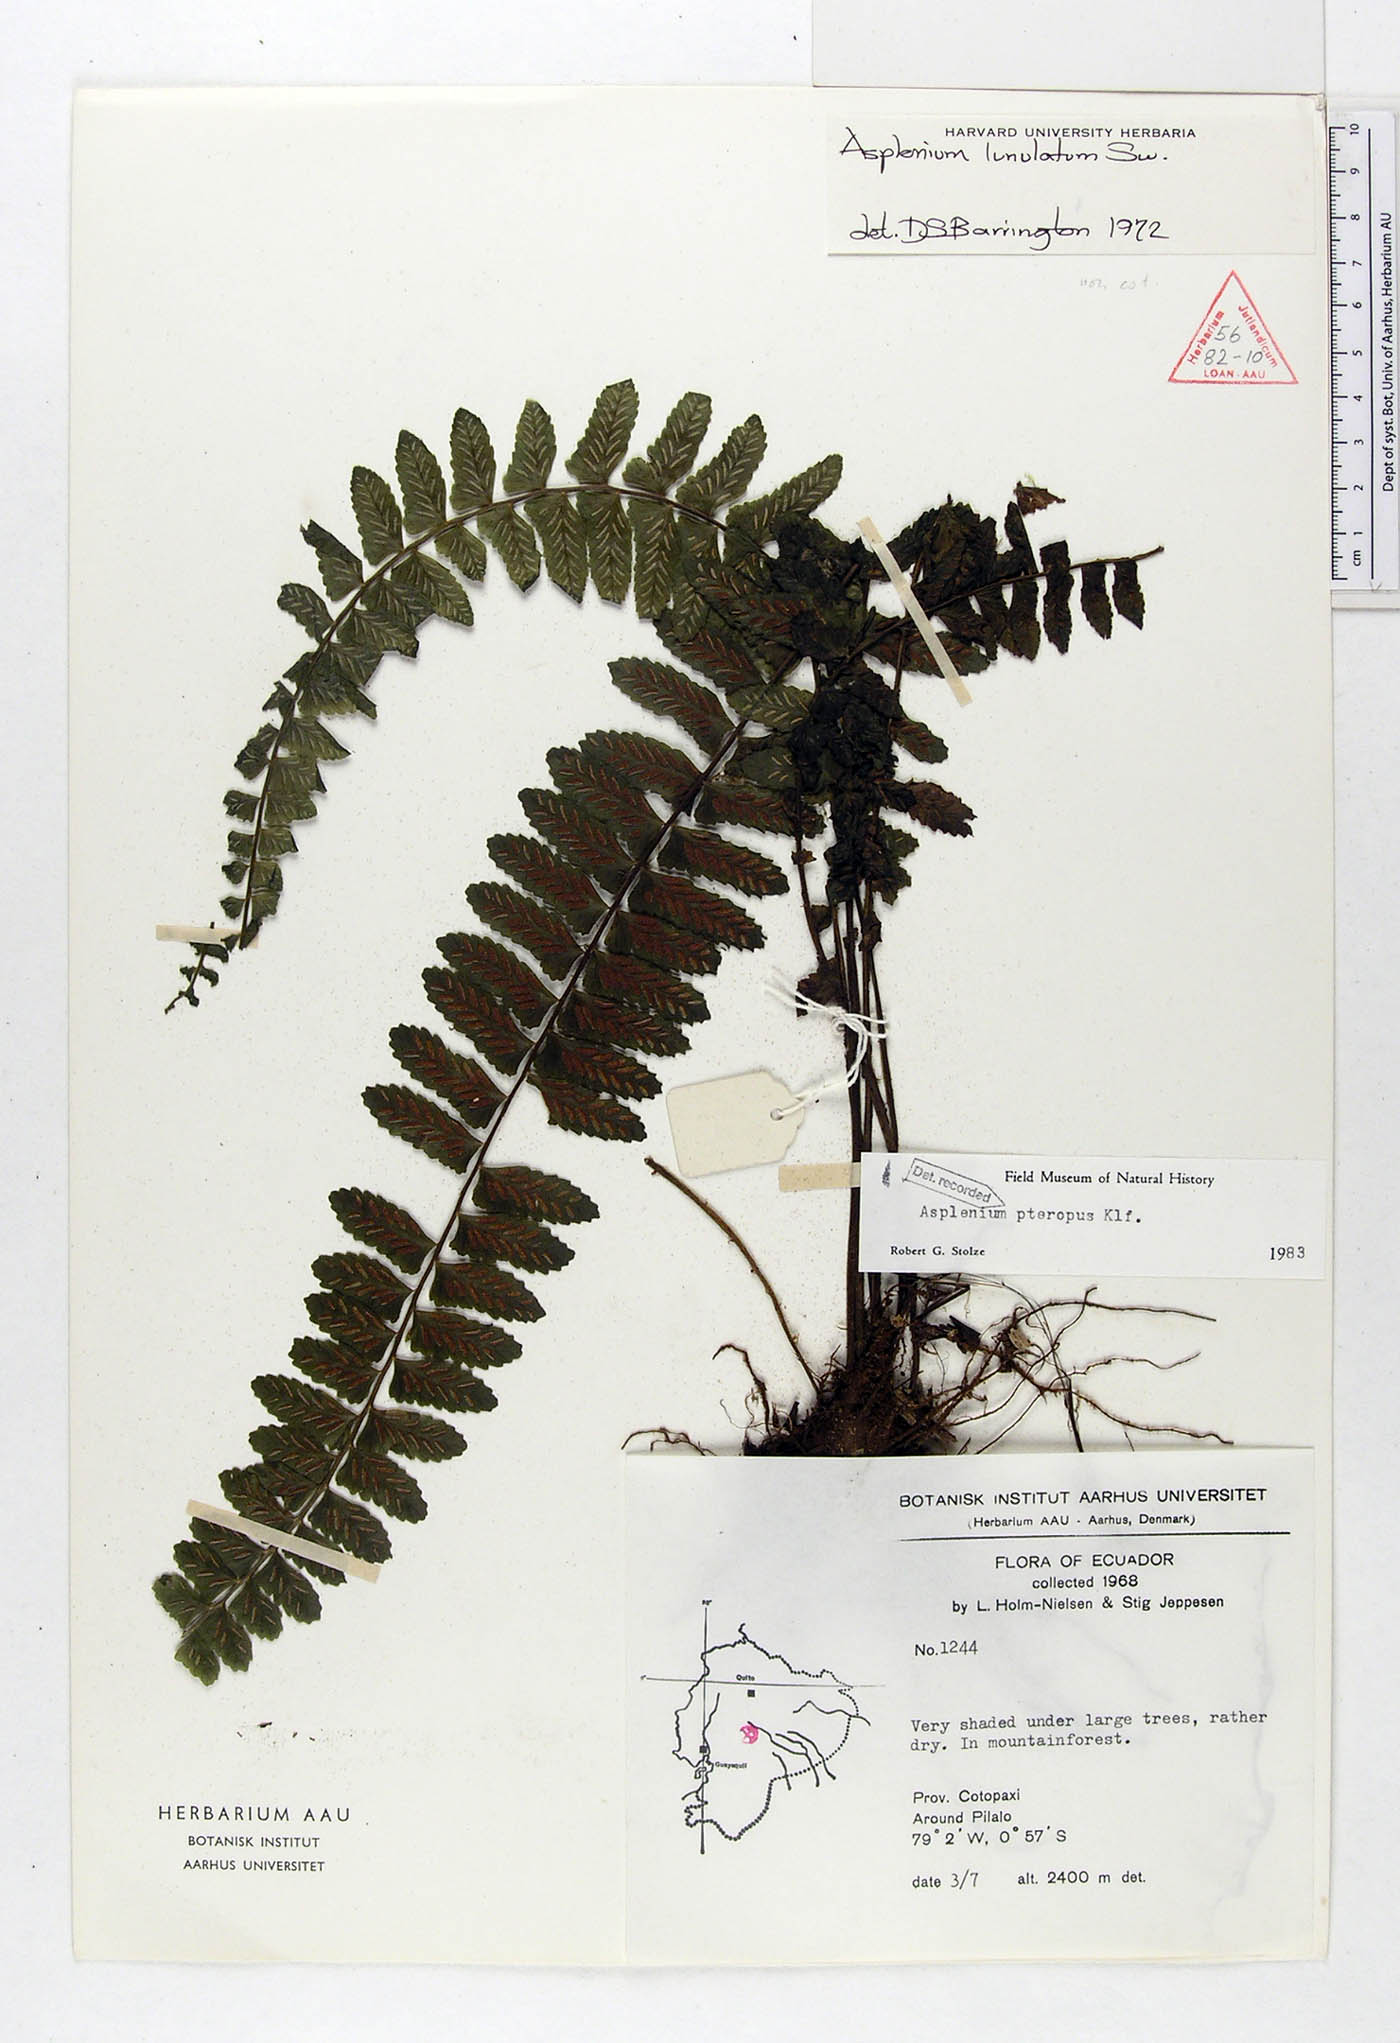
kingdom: Plantae
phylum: Tracheophyta
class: Polypodiopsida
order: Polypodiales
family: Aspleniaceae
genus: Asplenium
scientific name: Asplenium pteropus
